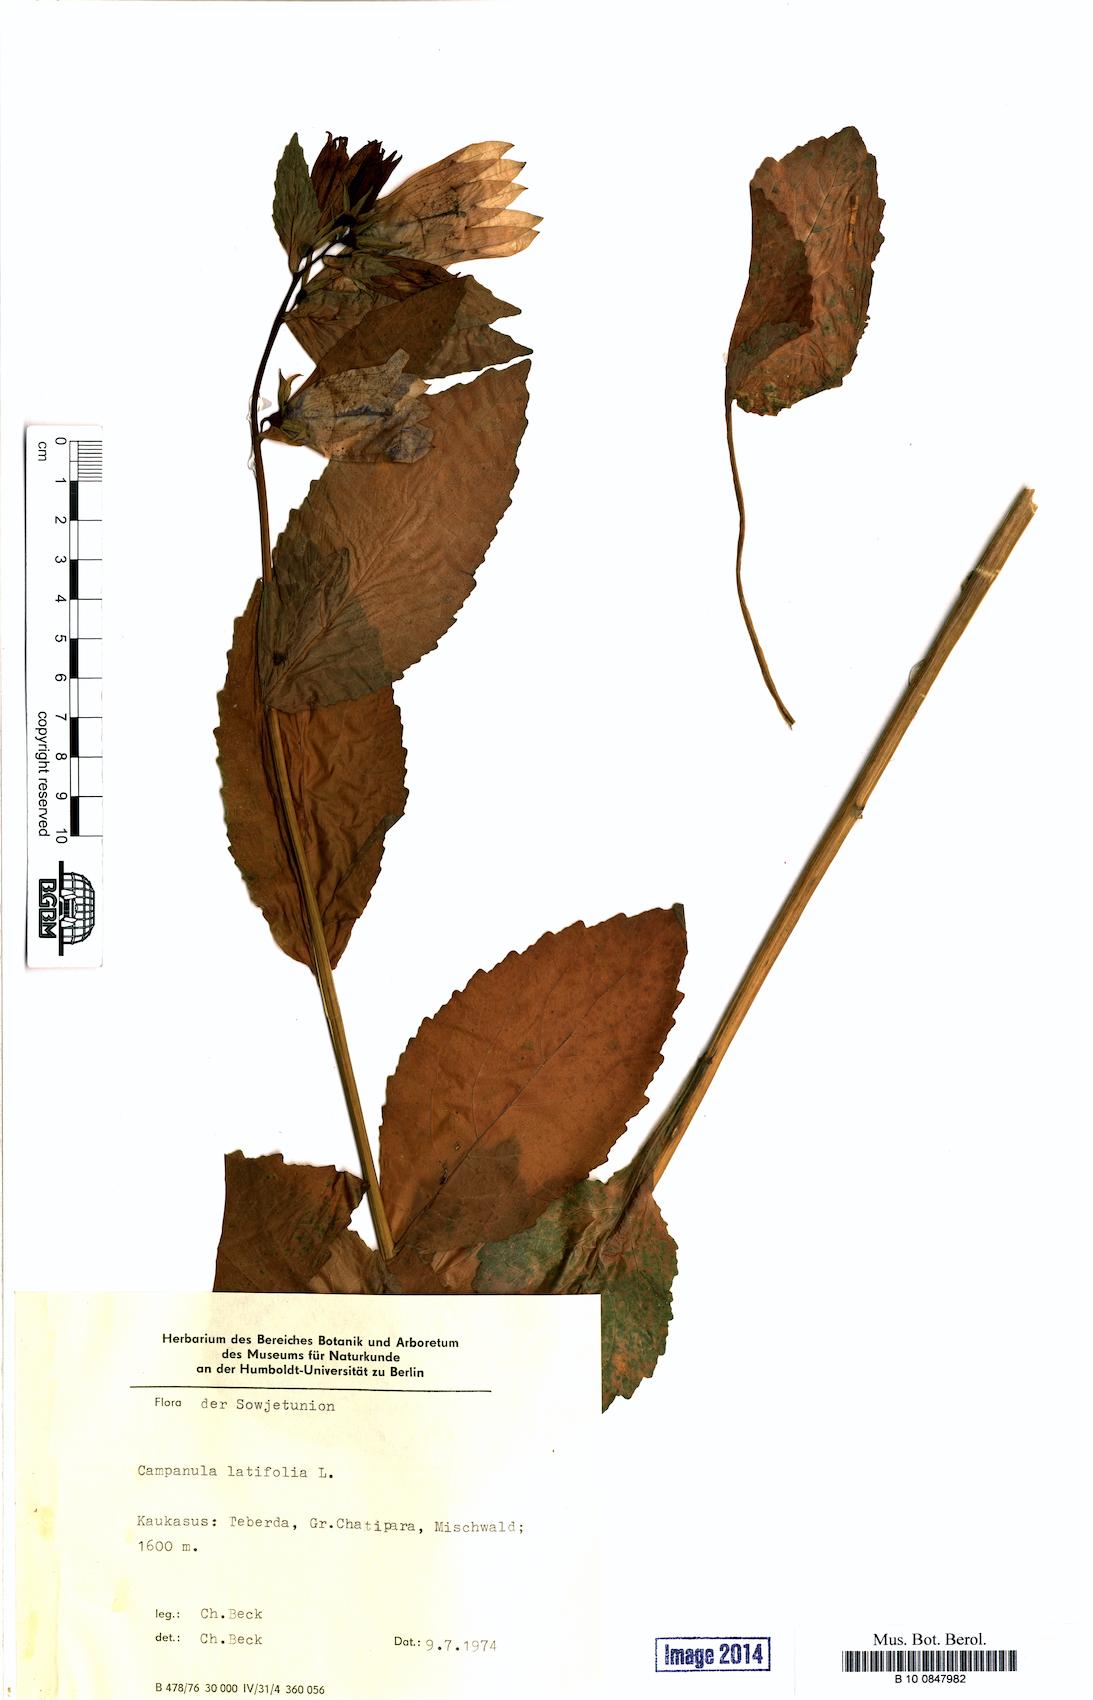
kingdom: Plantae
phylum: Tracheophyta
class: Magnoliopsida
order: Asterales
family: Campanulaceae
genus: Campanula
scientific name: Campanula latifolia
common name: Giant bellflower
